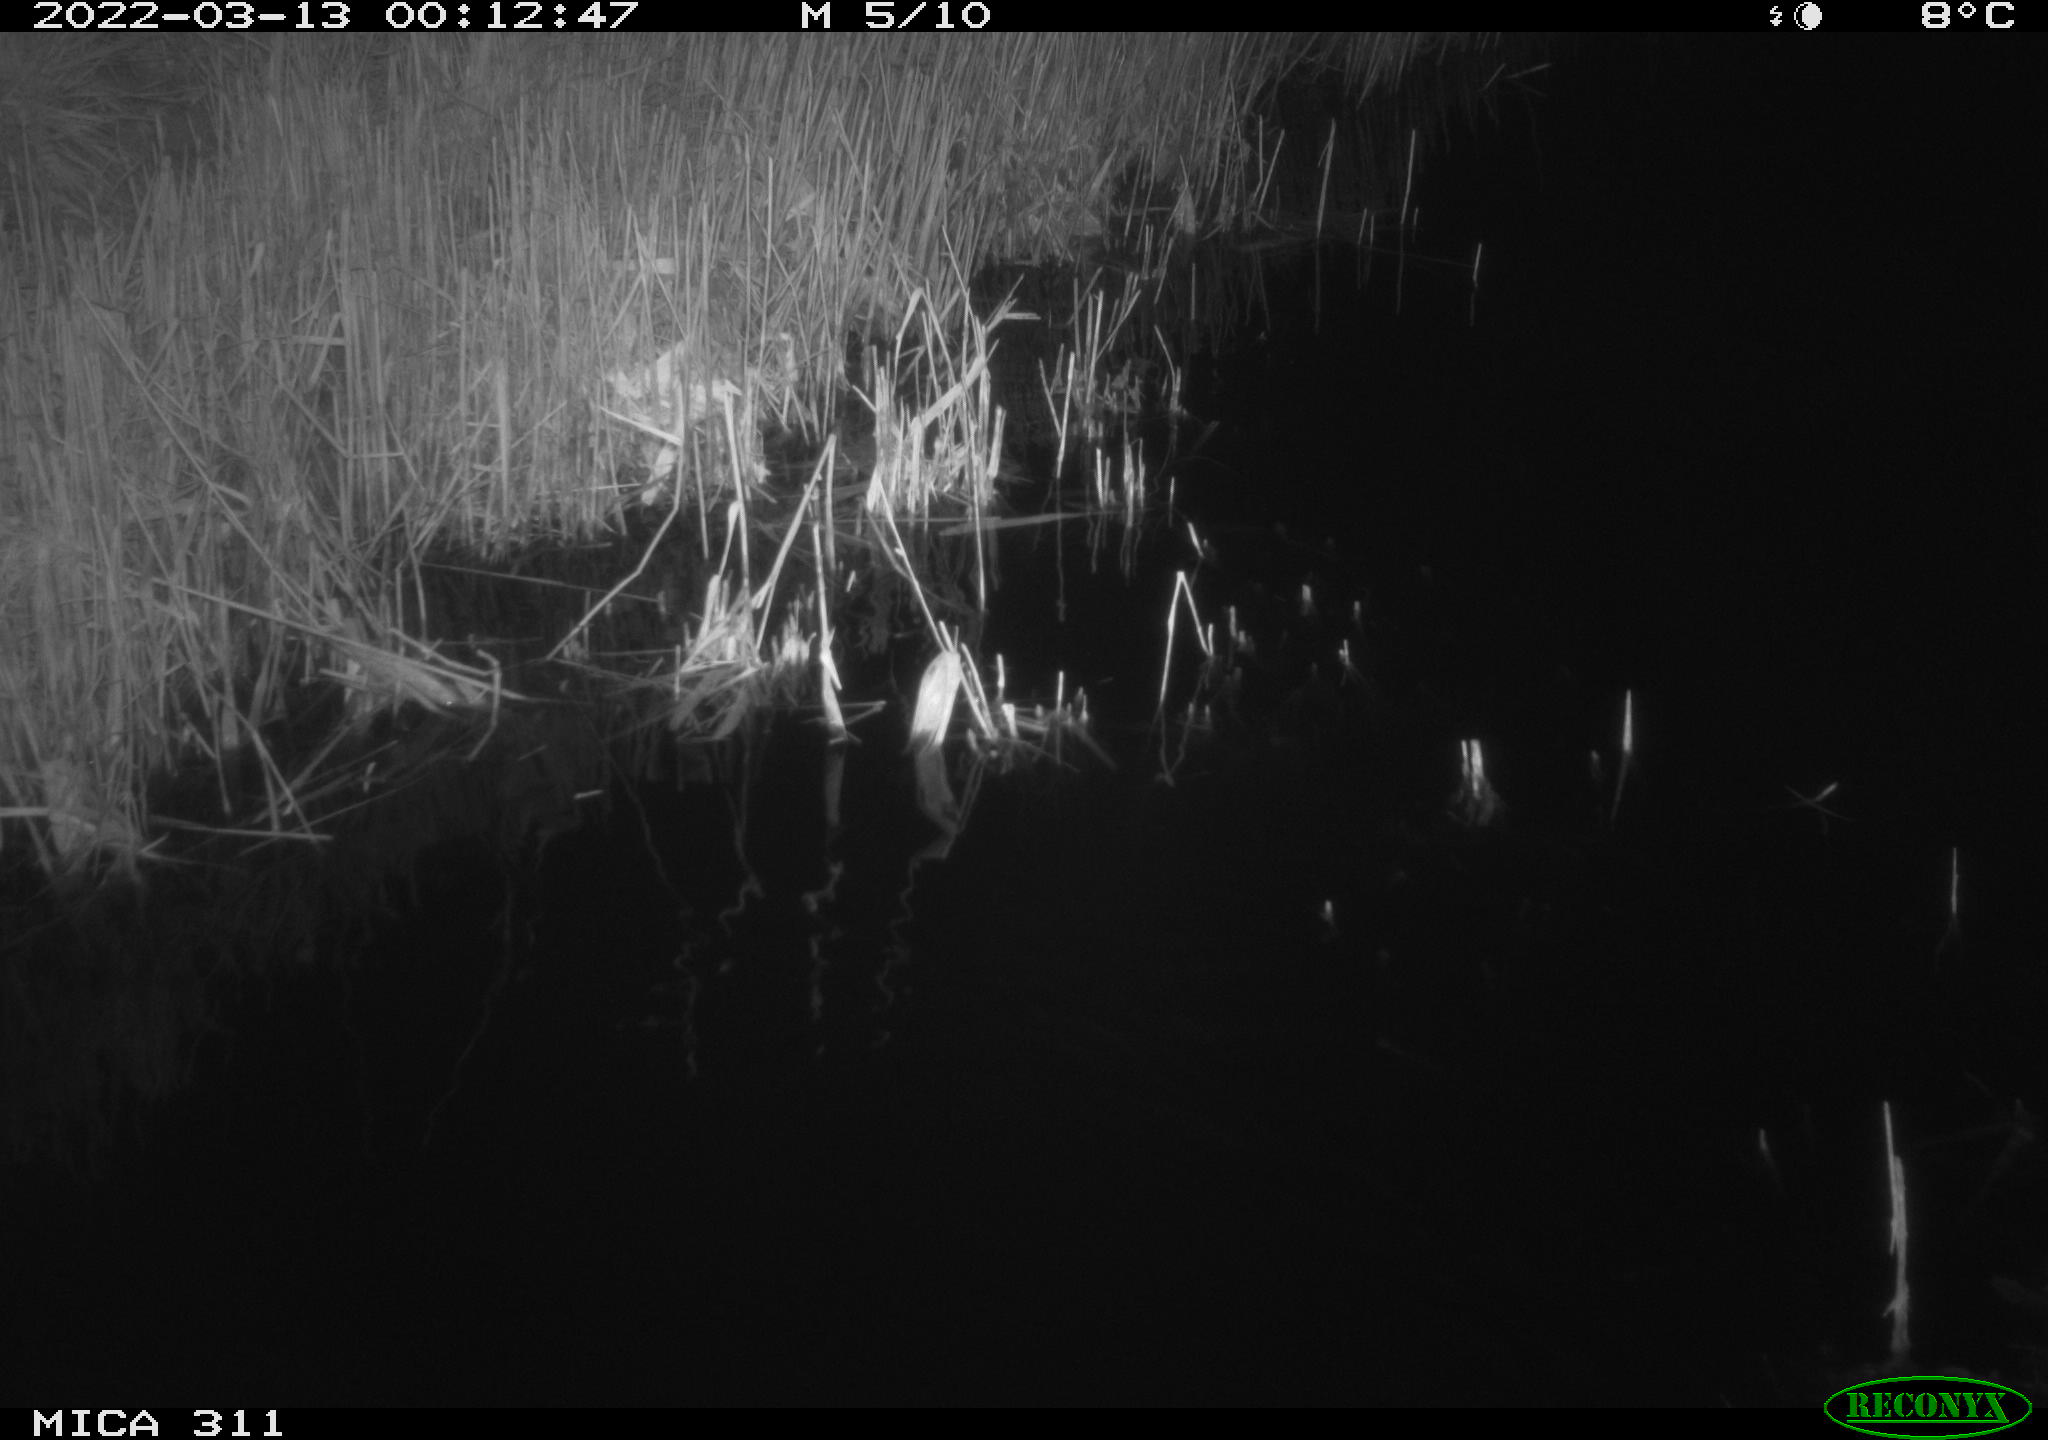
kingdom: Animalia
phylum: Chordata
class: Mammalia
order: Rodentia
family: Muridae
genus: Rattus
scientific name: Rattus norvegicus
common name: Brown rat
